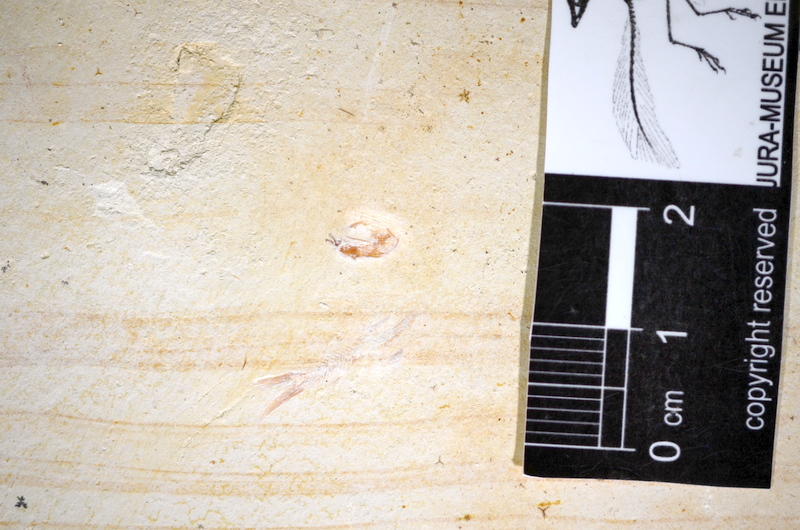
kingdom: Animalia
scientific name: Animalia
